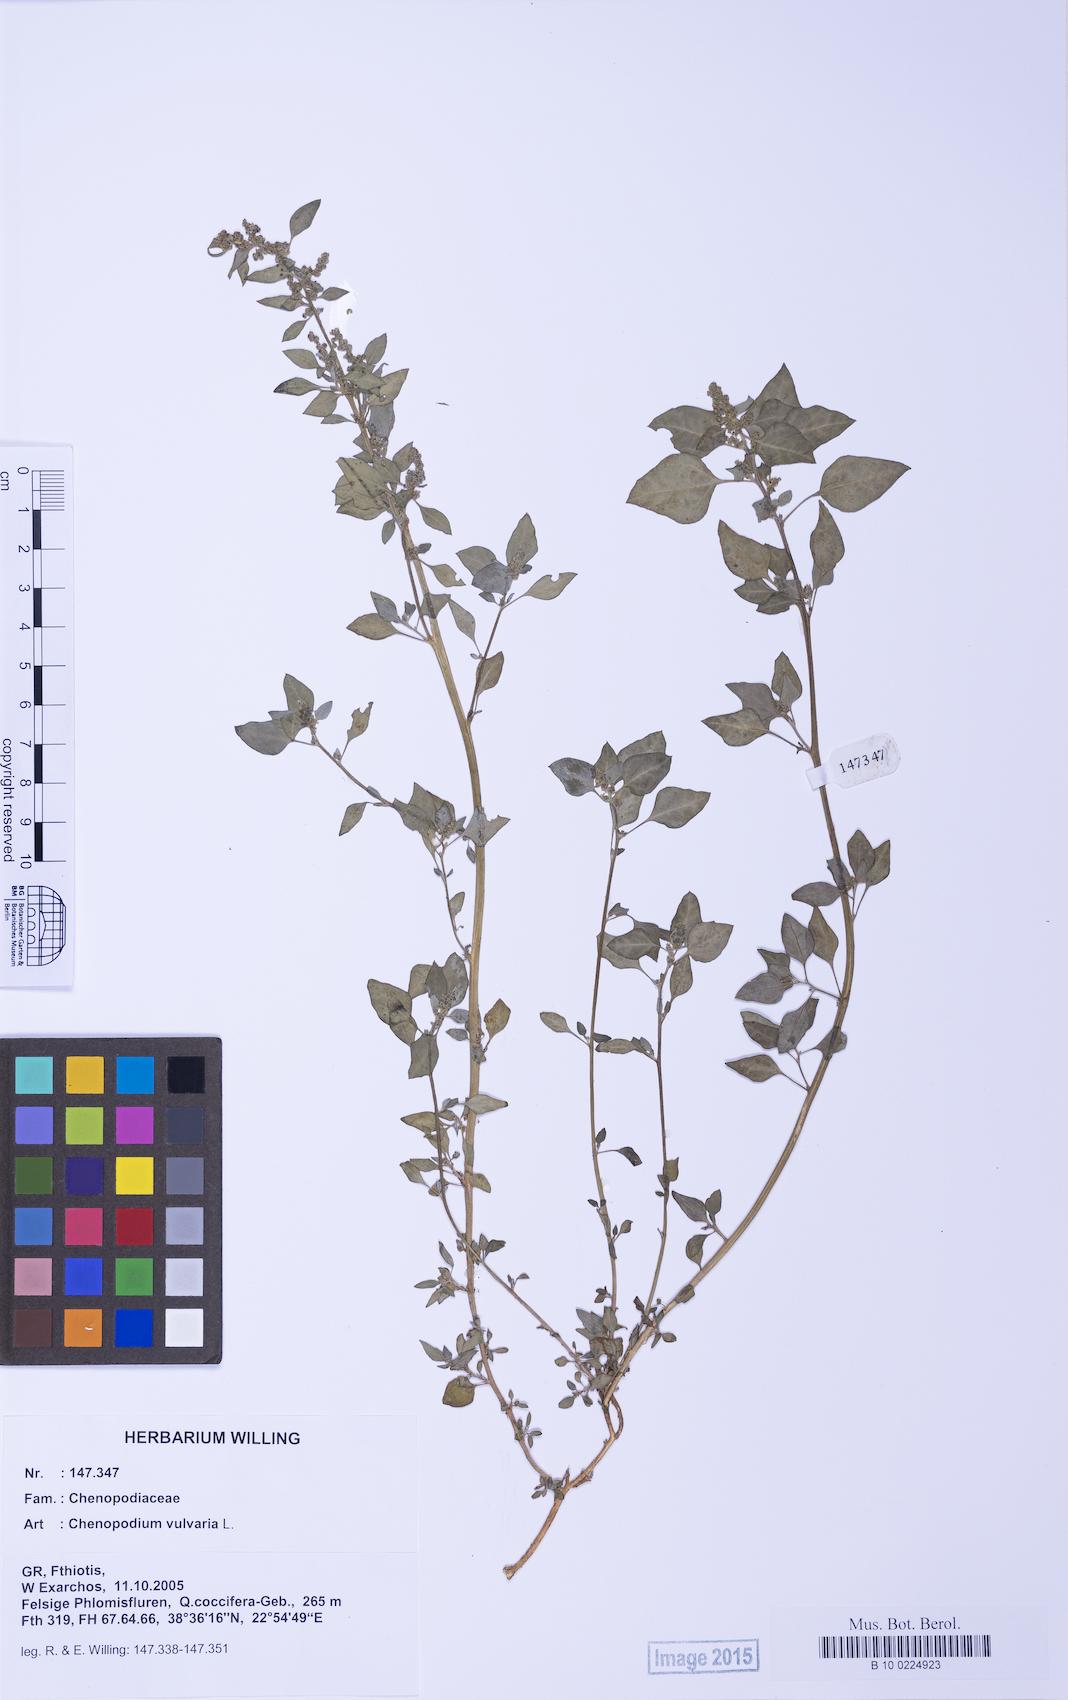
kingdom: Plantae
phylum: Tracheophyta
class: Magnoliopsida
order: Caryophyllales
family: Amaranthaceae
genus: Chenopodium
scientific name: Chenopodium vulvaria
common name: Stinking goosefoot
